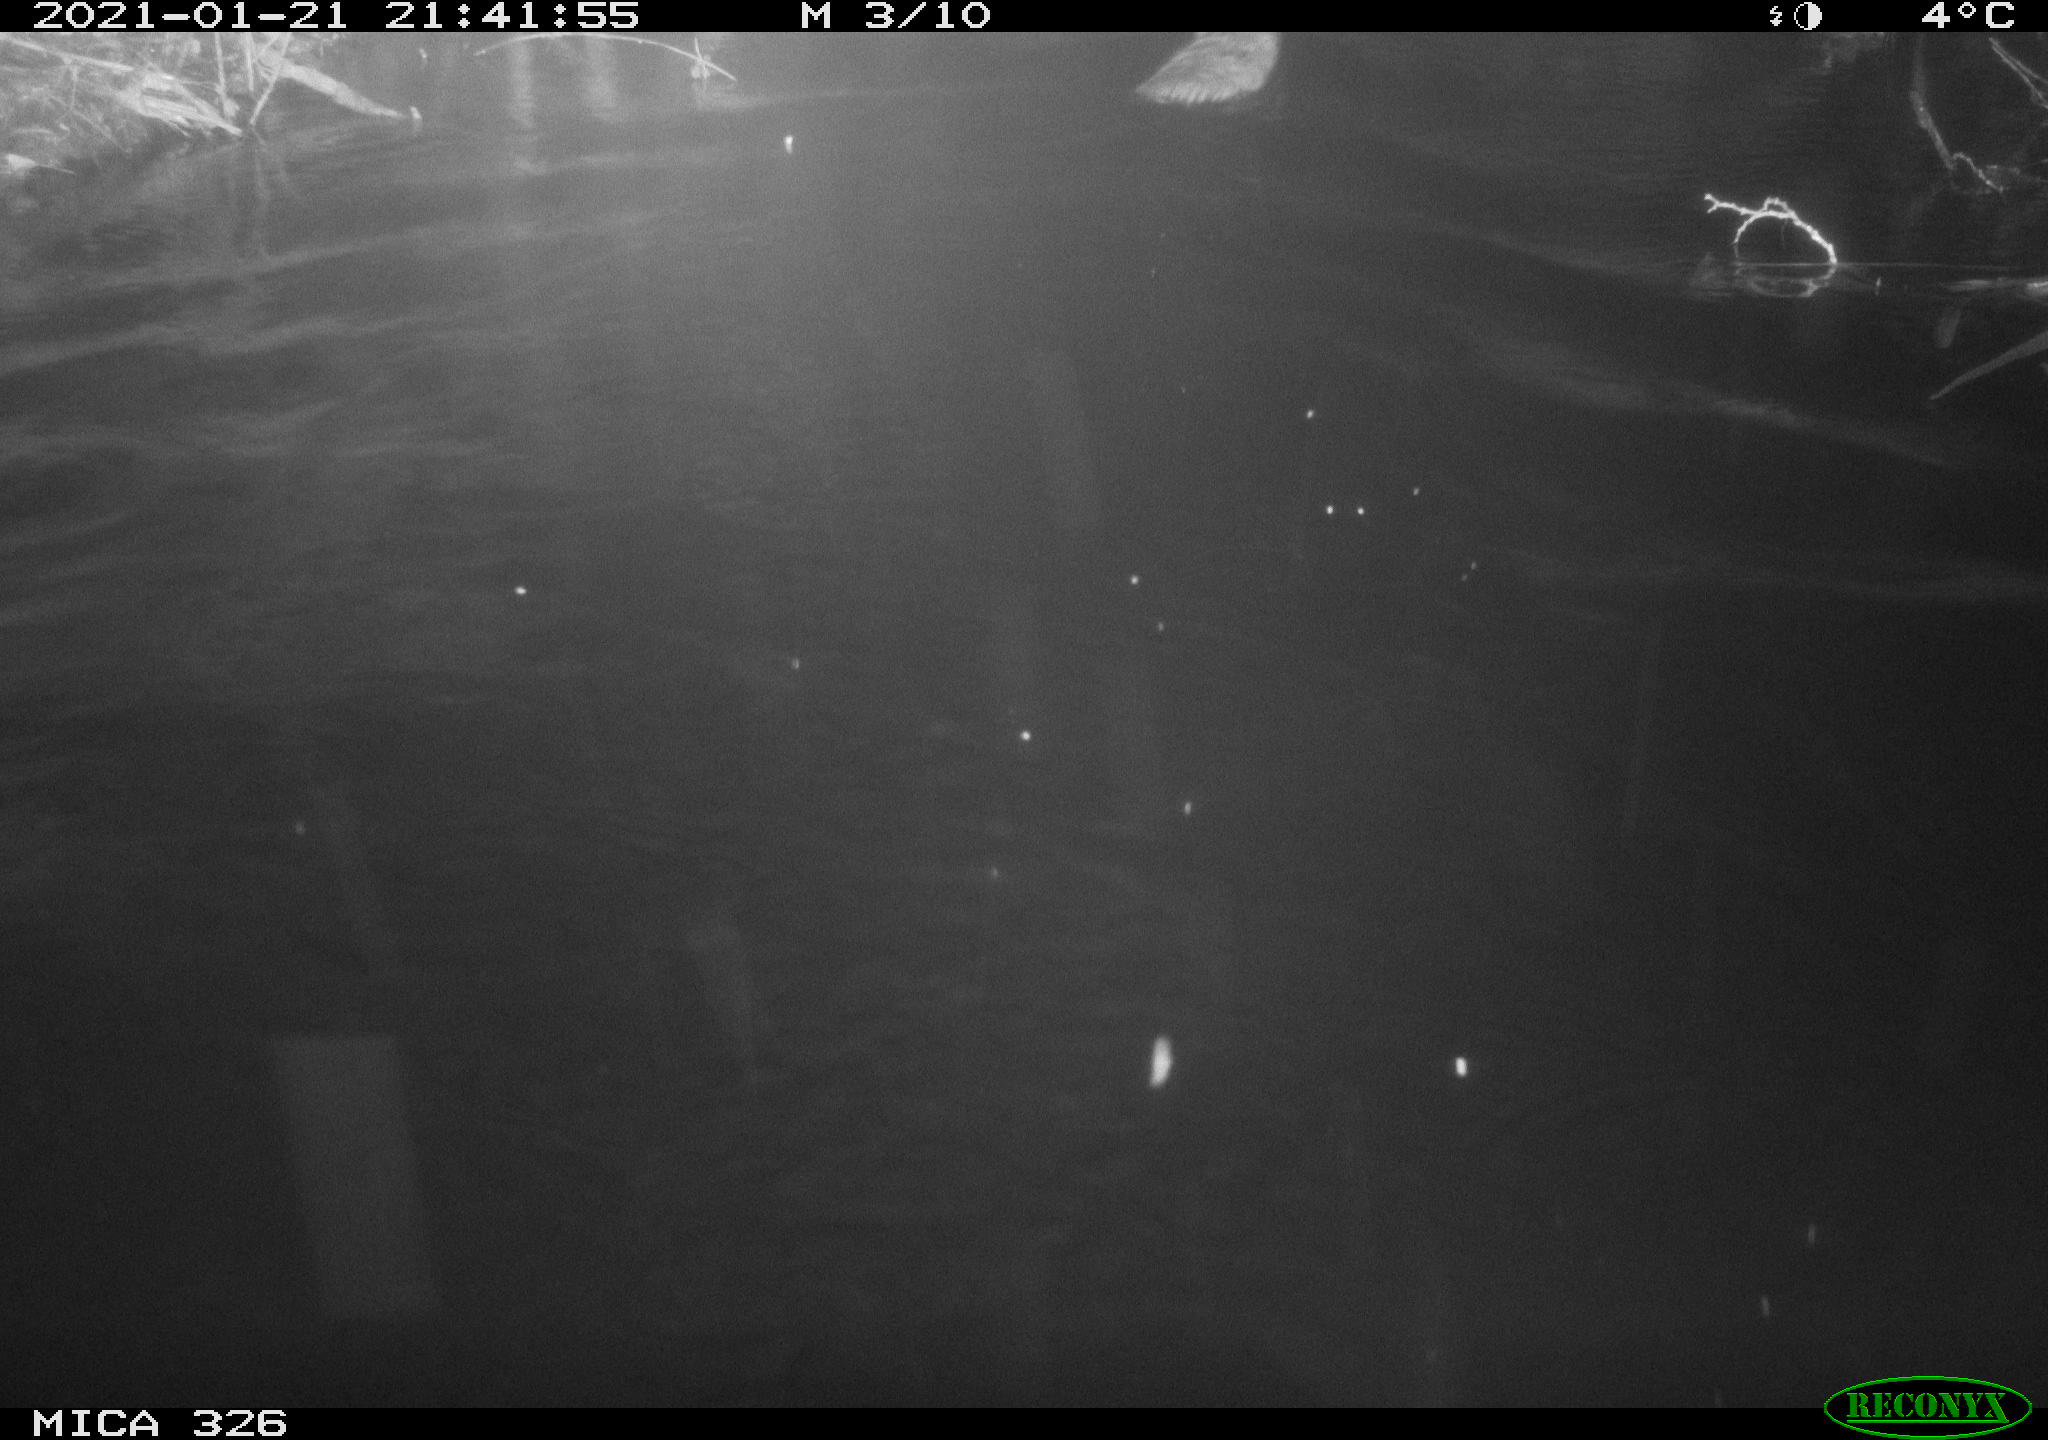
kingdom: Animalia
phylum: Chordata
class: Mammalia
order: Rodentia
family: Cricetidae
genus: Ondatra
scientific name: Ondatra zibethicus
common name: Muskrat
